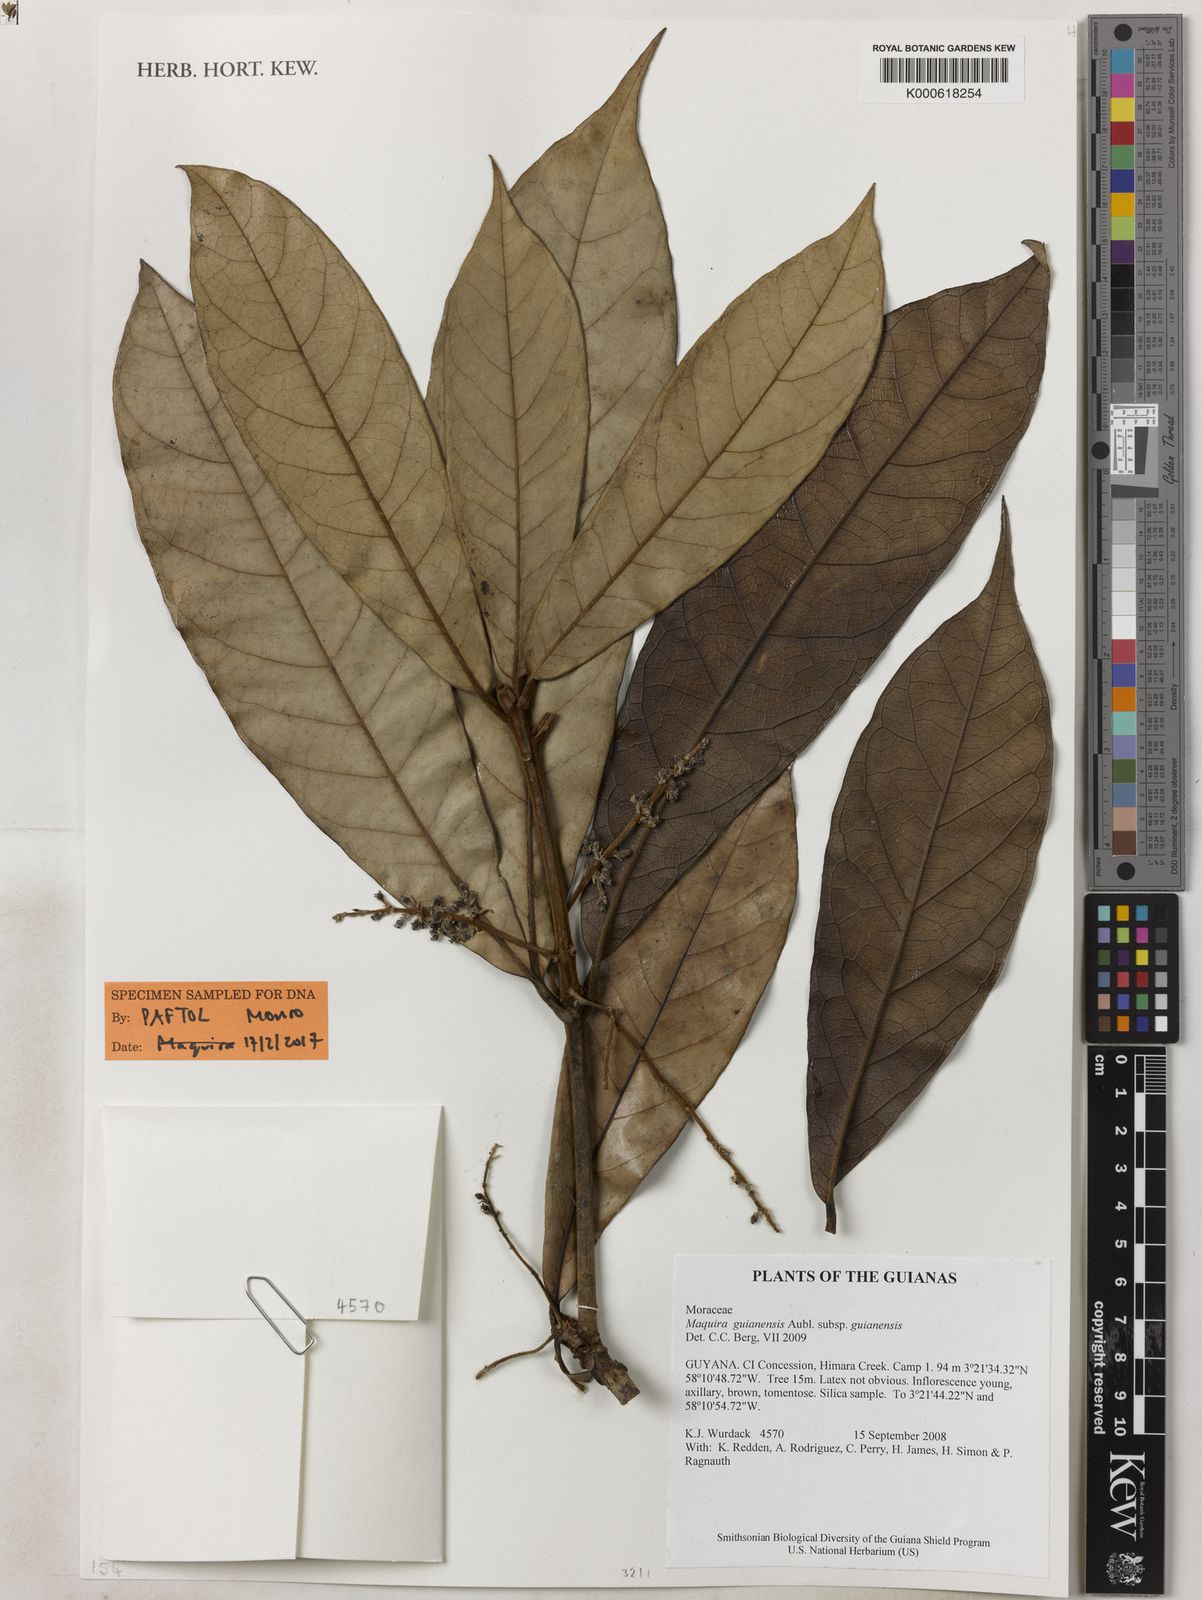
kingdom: Plantae
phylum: Tracheophyta
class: Magnoliopsida
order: Rosales
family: Moraceae
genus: Maquira
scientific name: Maquira guianensis
